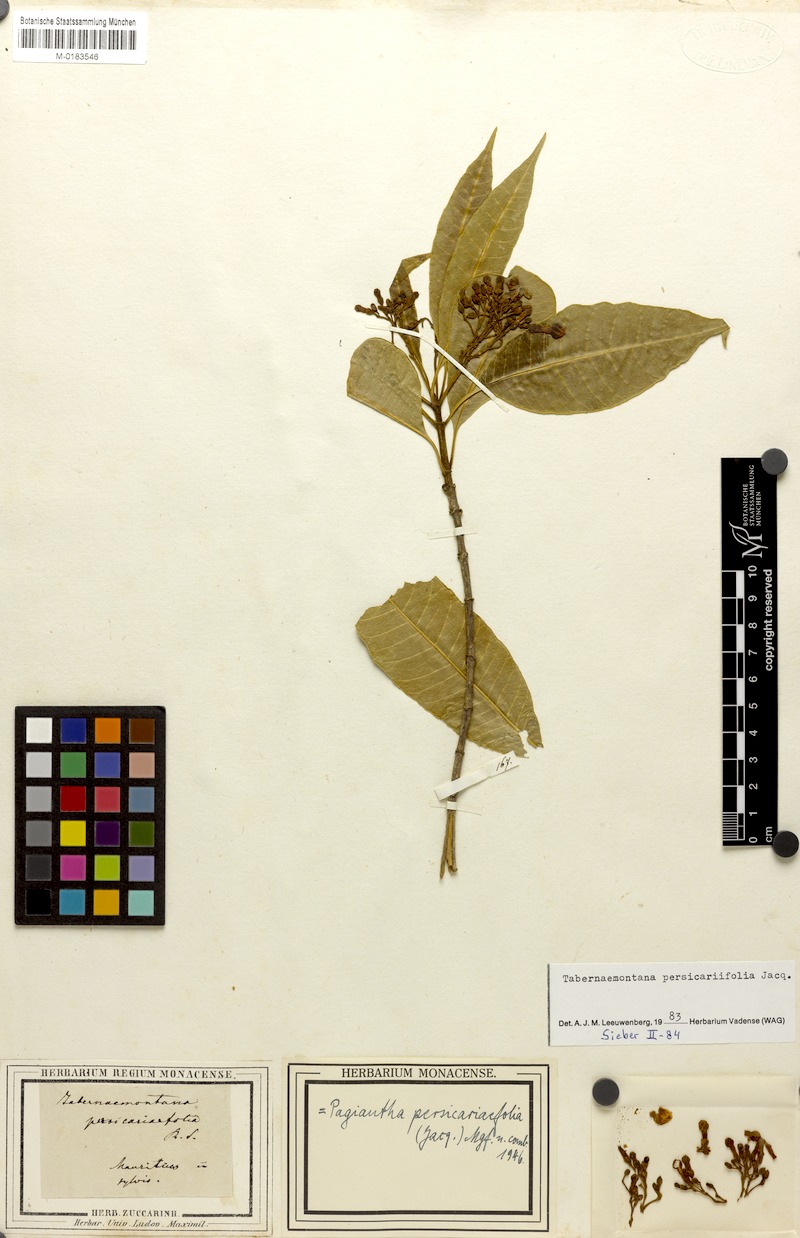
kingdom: Plantae
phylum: Tracheophyta
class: Magnoliopsida
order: Gentianales
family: Apocynaceae
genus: Tabernaemontana
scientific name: Tabernaemontana persicariifolia
